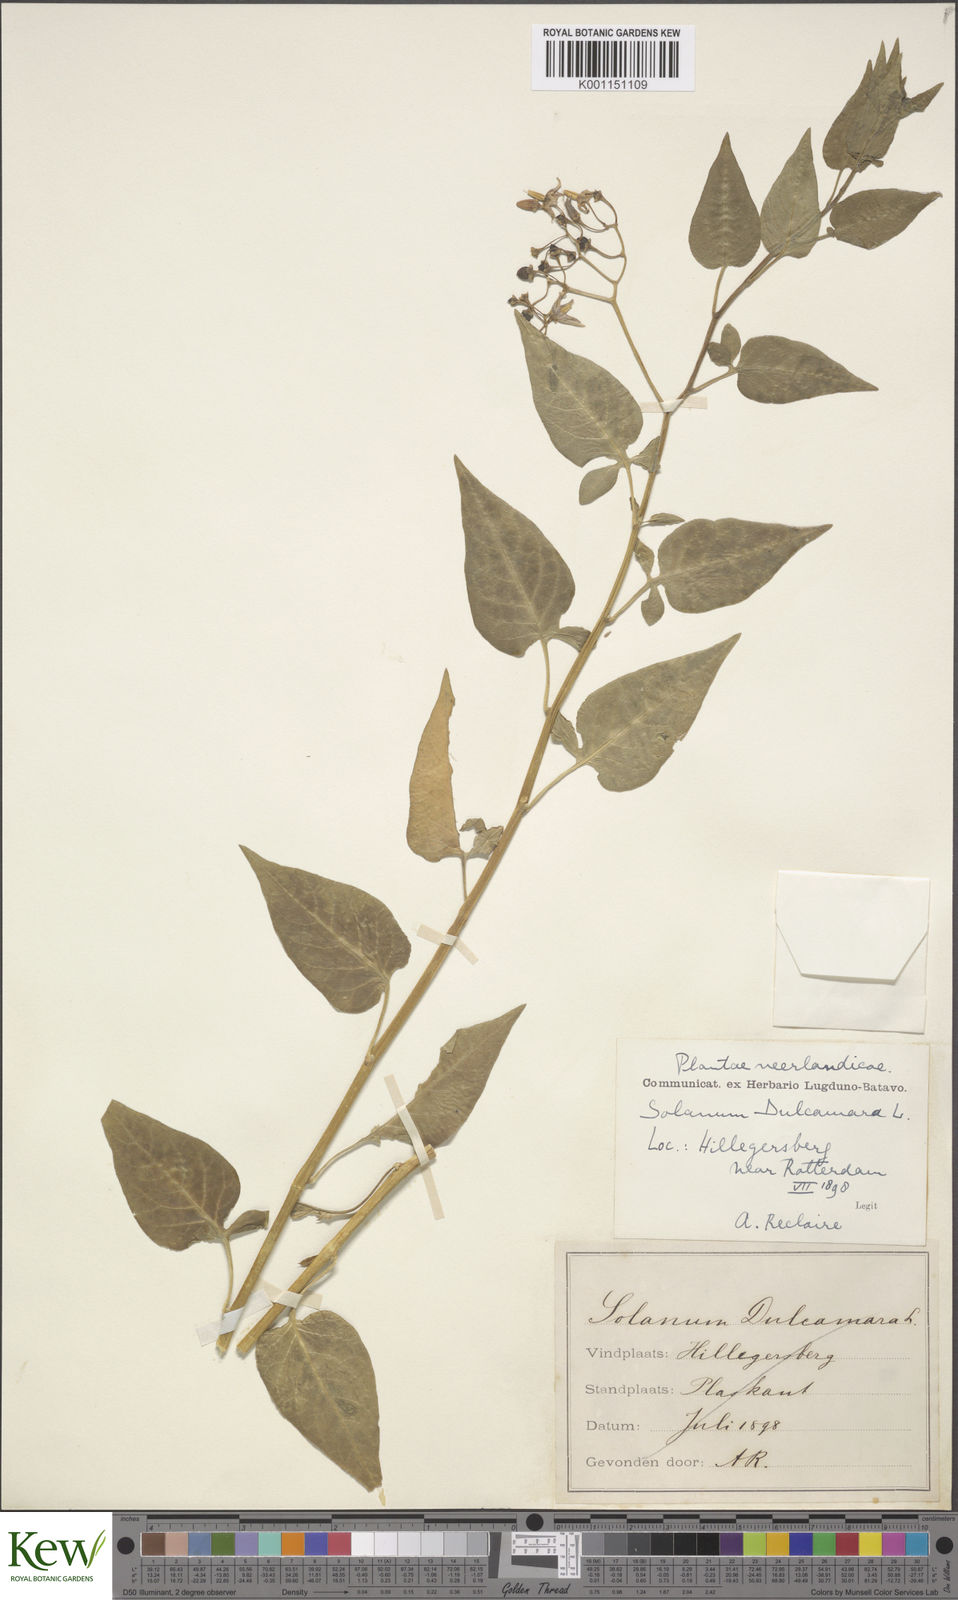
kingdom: Plantae
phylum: Tracheophyta
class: Magnoliopsida
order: Solanales
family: Solanaceae
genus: Solanum
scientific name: Solanum dulcamara
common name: Climbing nightshade
